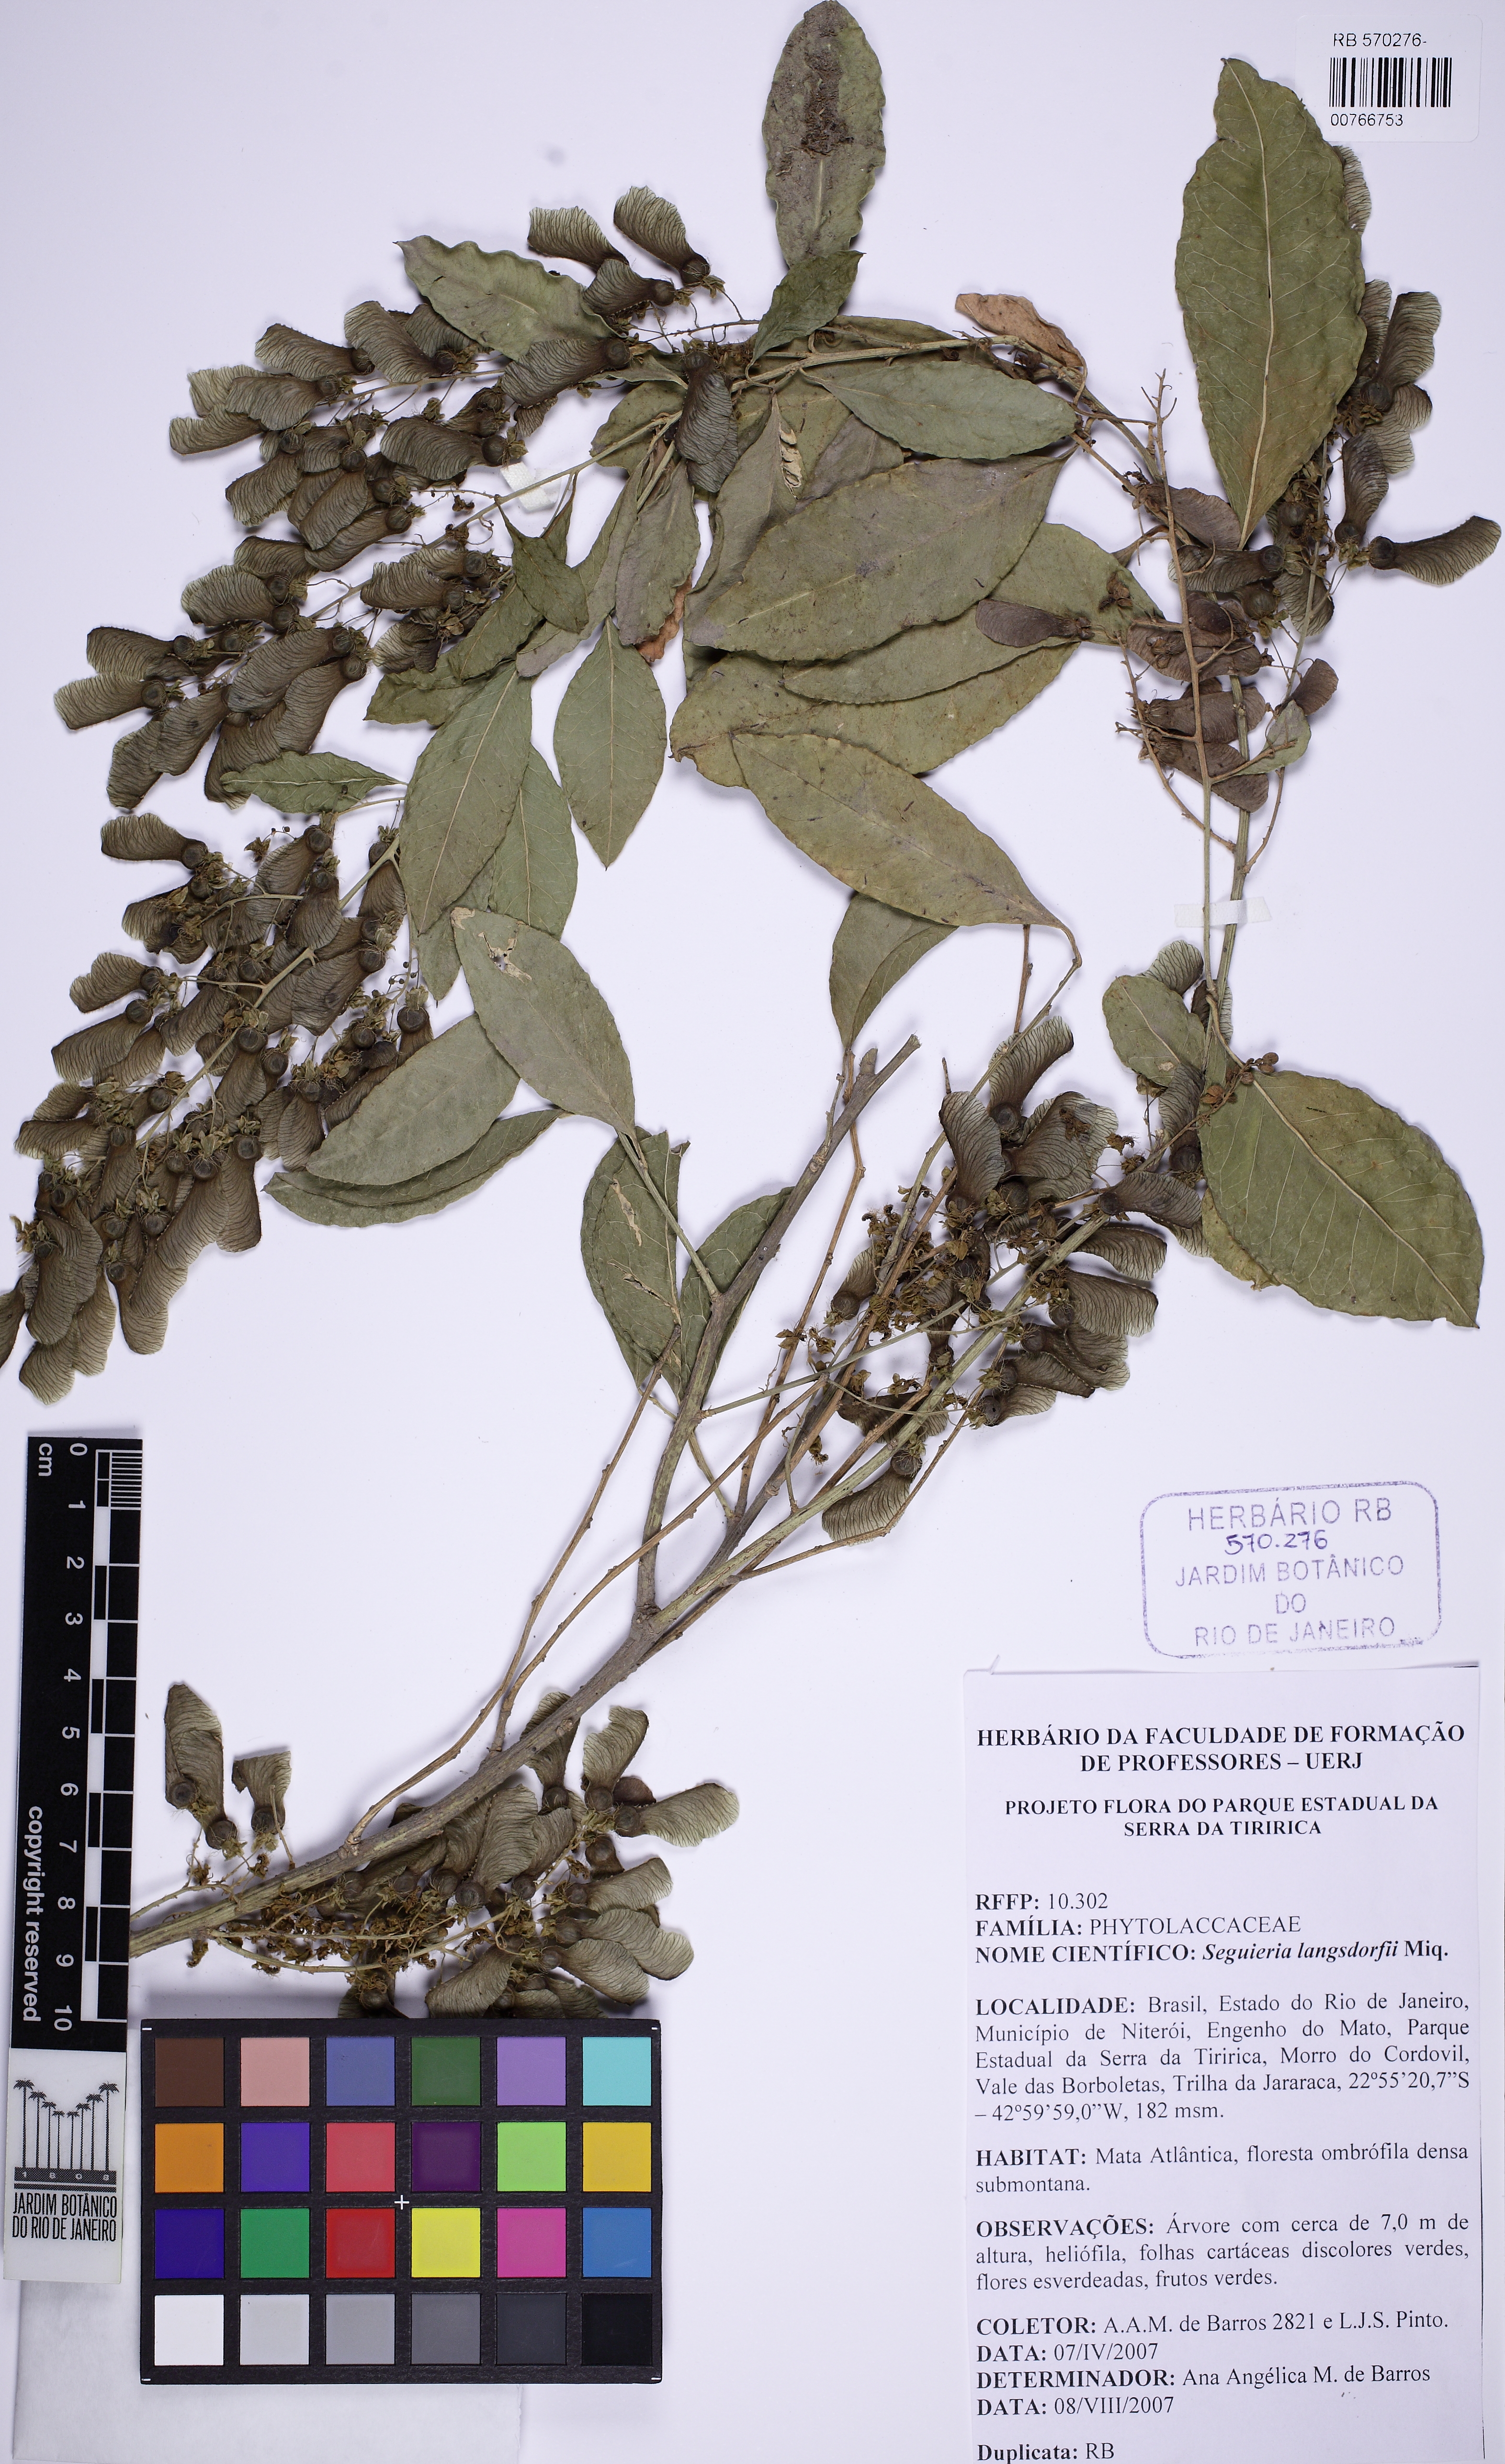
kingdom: Plantae
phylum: Tracheophyta
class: Magnoliopsida
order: Caryophyllales
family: Phytolaccaceae
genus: Seguieria
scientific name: Seguieria langsdorffii
